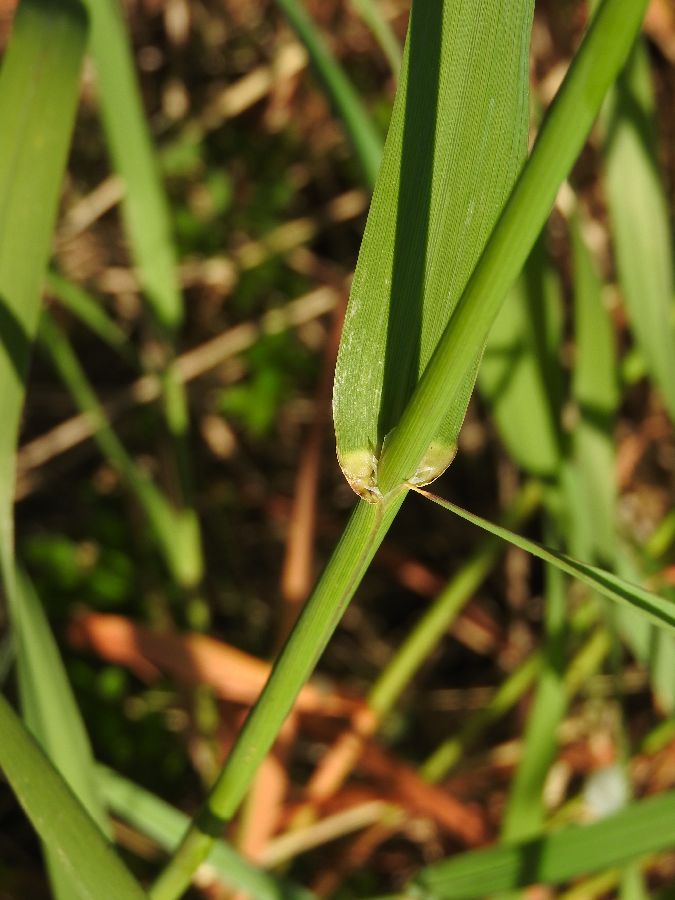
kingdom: Plantae
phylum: Tracheophyta
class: Liliopsida
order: Poales
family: Poaceae
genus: Phalaris
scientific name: Phalaris arundinacea
